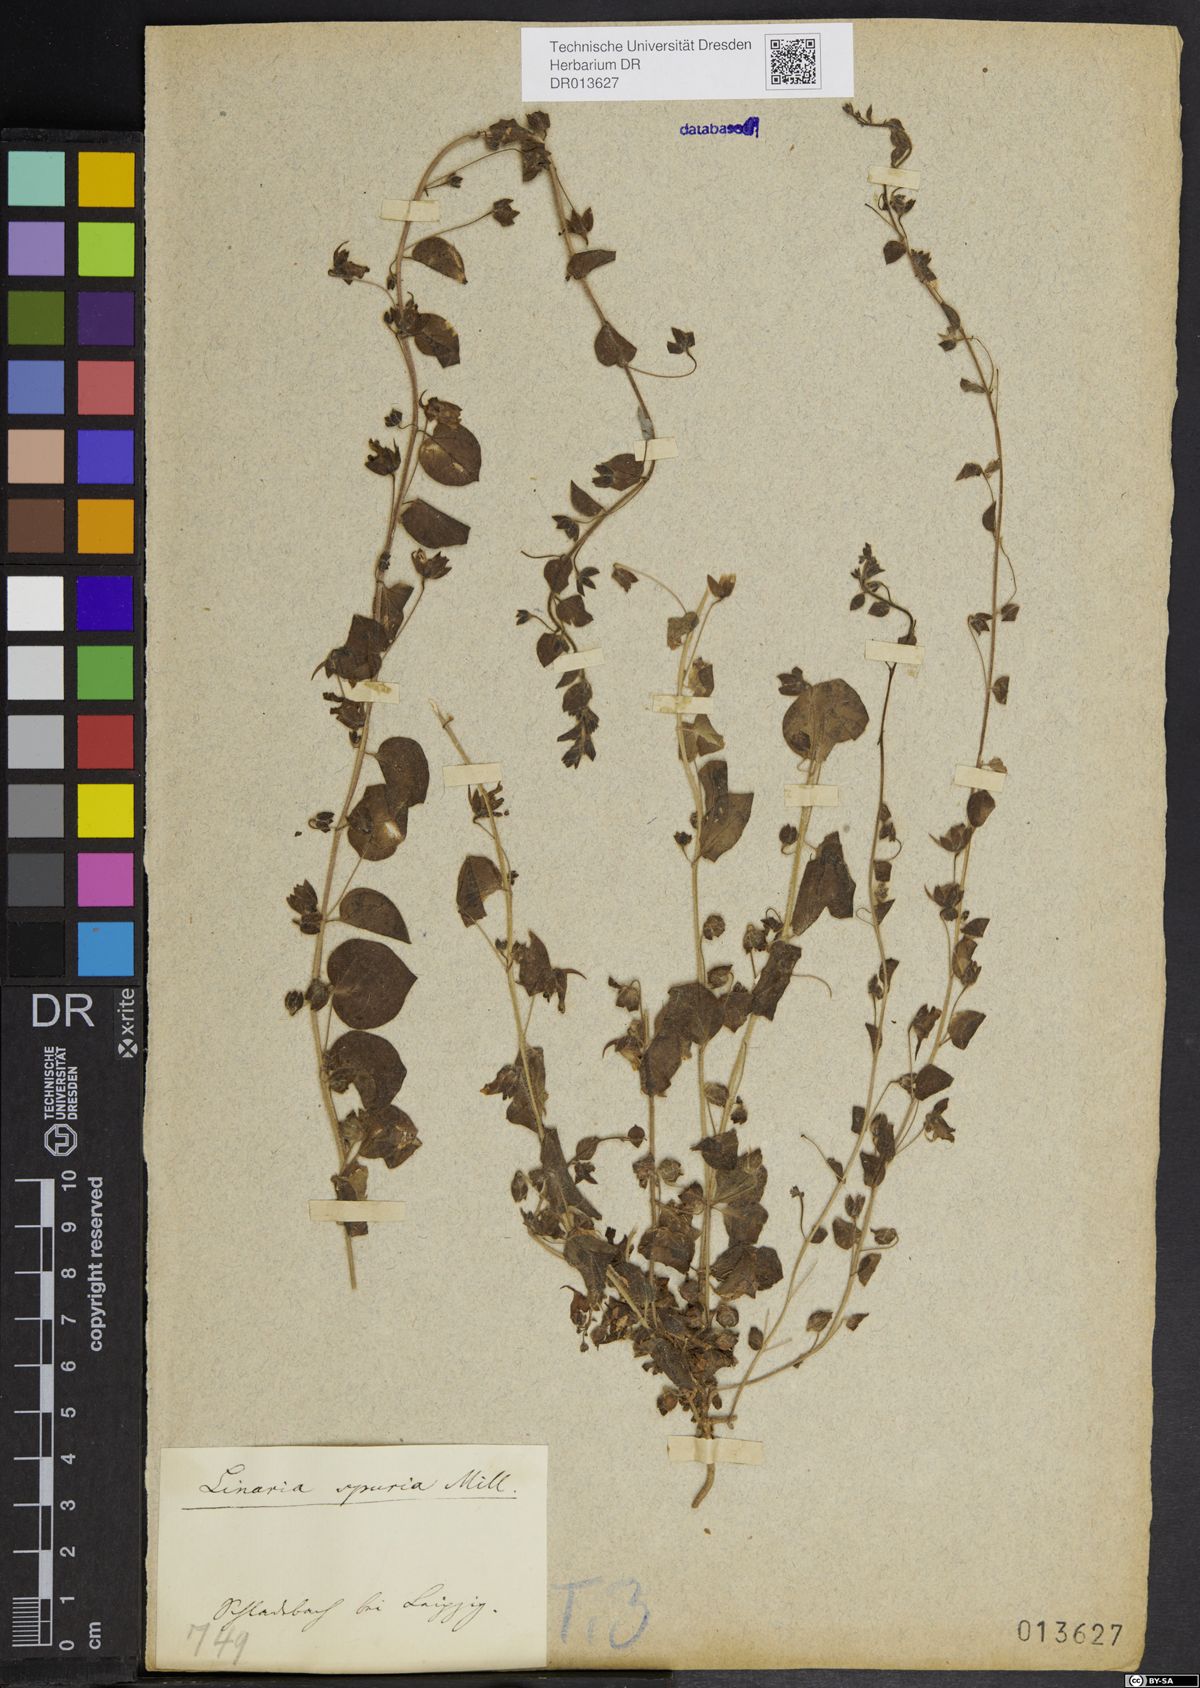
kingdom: Plantae
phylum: Tracheophyta
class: Magnoliopsida
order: Lamiales
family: Plantaginaceae
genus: Kickxia
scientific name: Kickxia spuria
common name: Round-leaved fluellen
